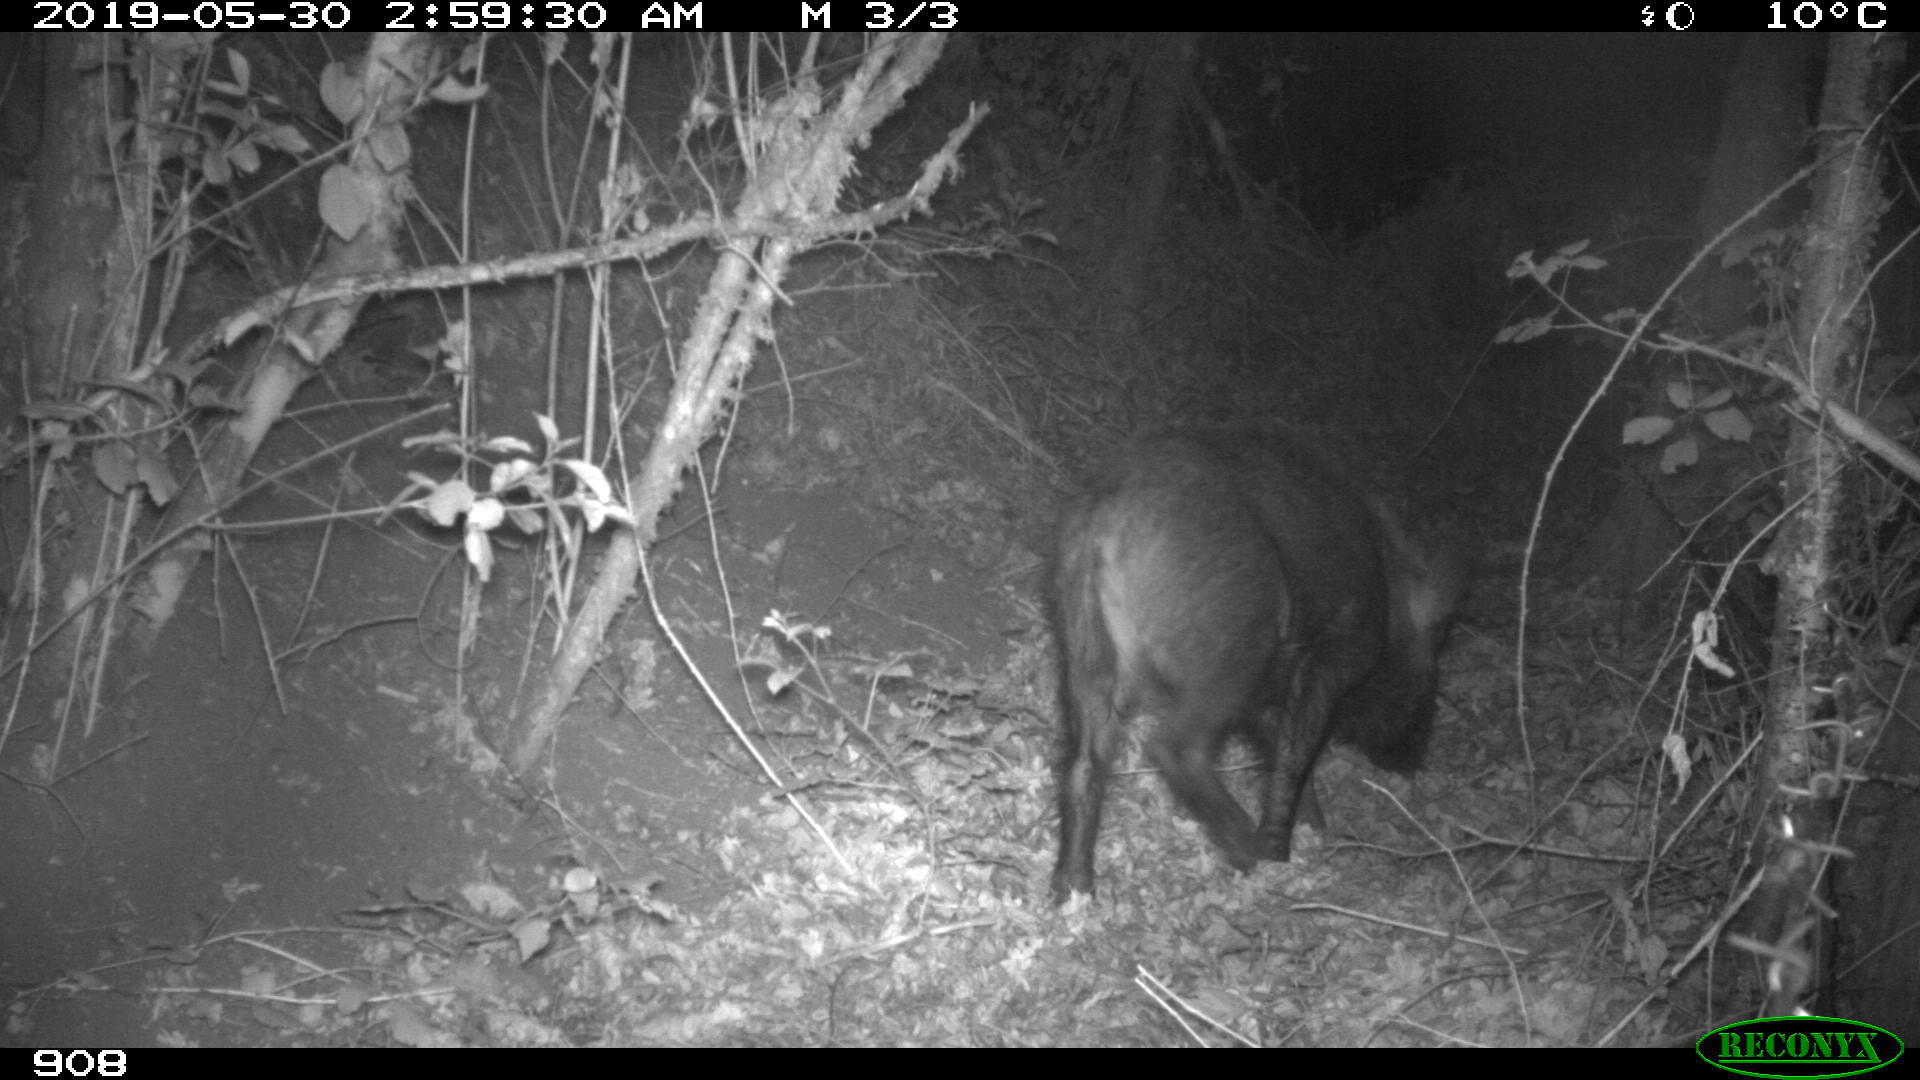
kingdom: Animalia
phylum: Chordata
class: Mammalia
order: Artiodactyla
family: Suidae
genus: Sus
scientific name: Sus scrofa
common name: Wild boar
